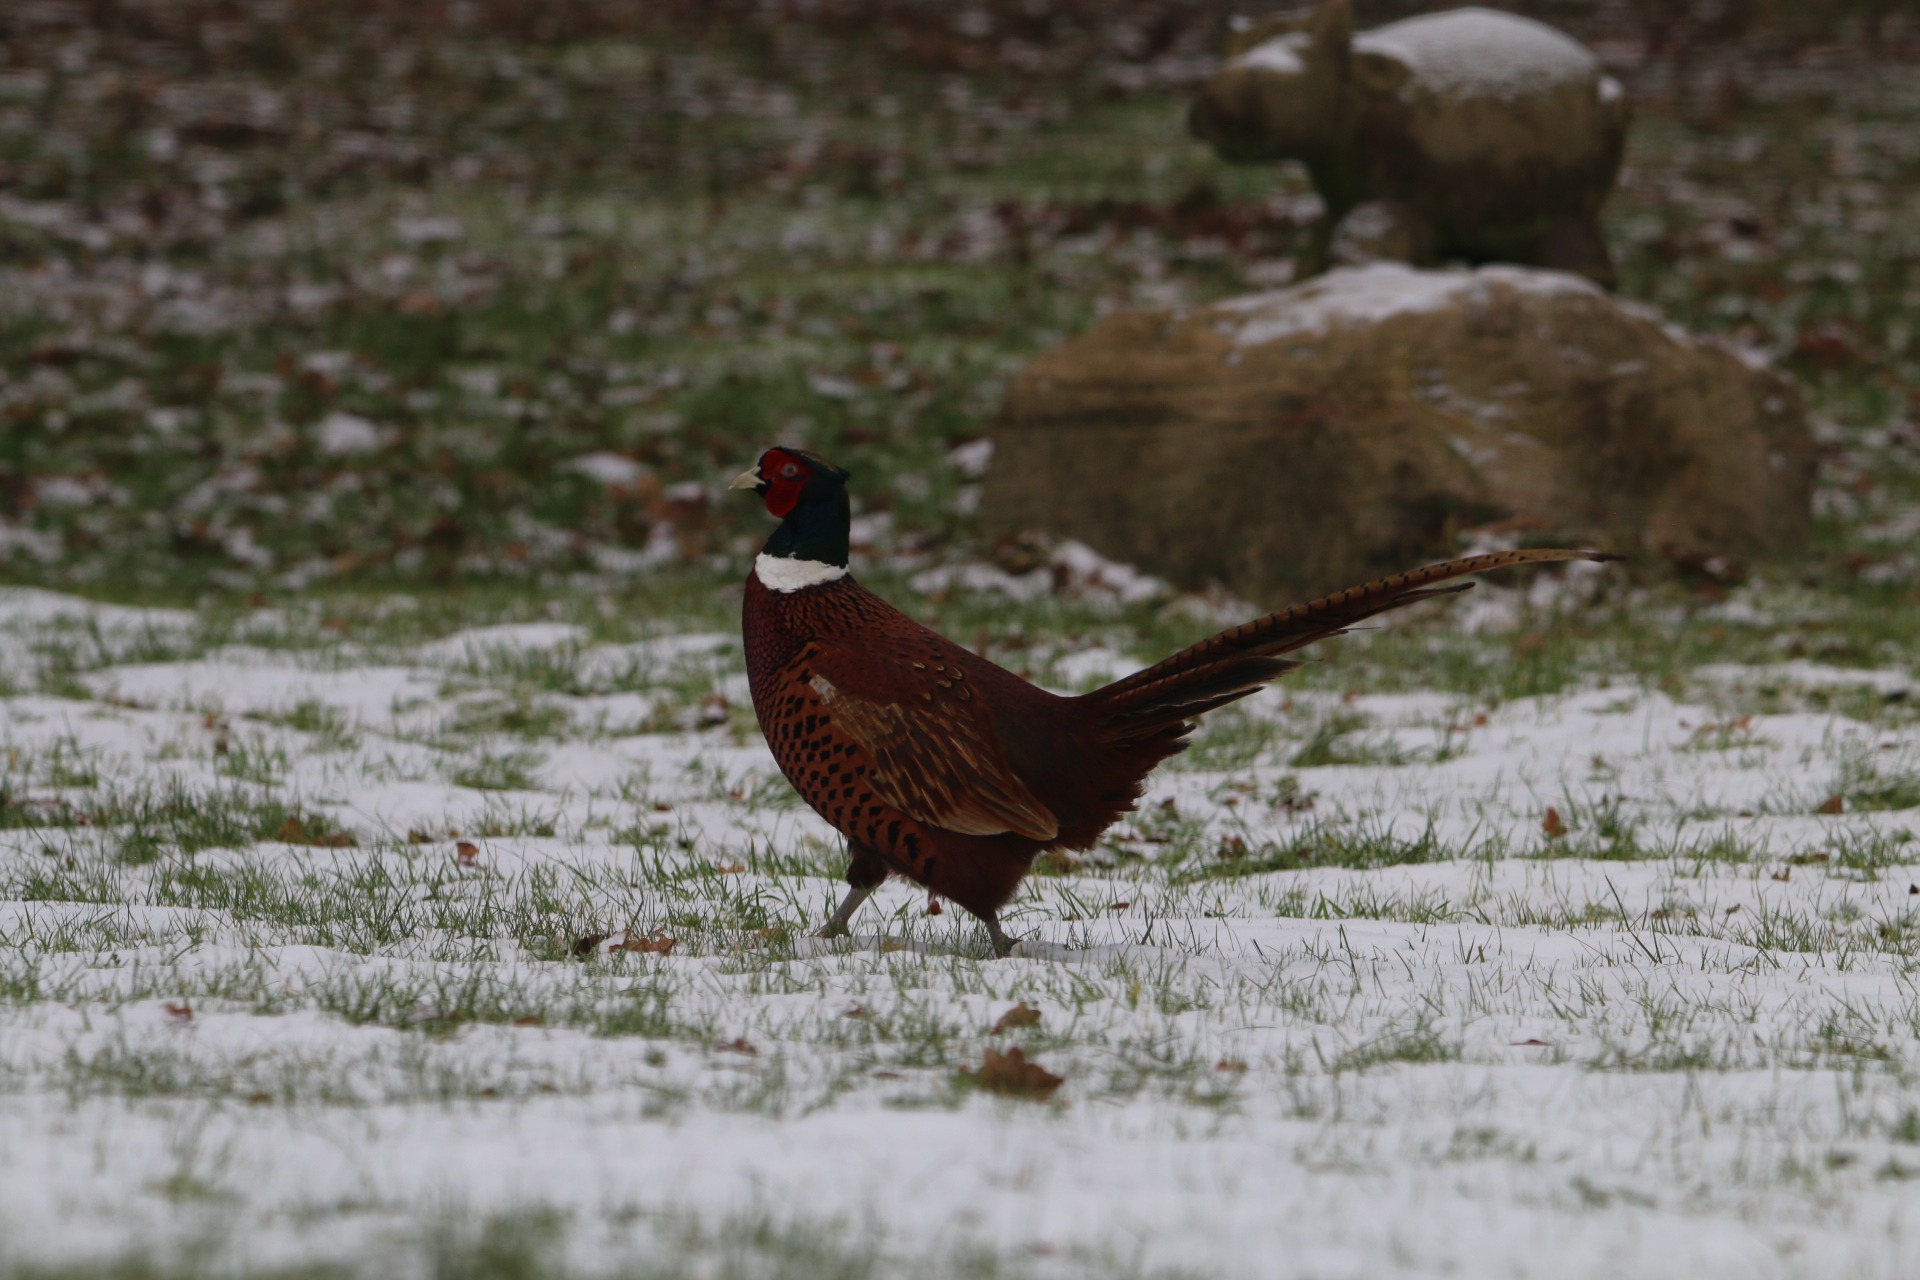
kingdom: Animalia
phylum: Chordata
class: Aves
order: Galliformes
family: Phasianidae
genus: Phasianus
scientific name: Phasianus colchicus
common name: Fasan
